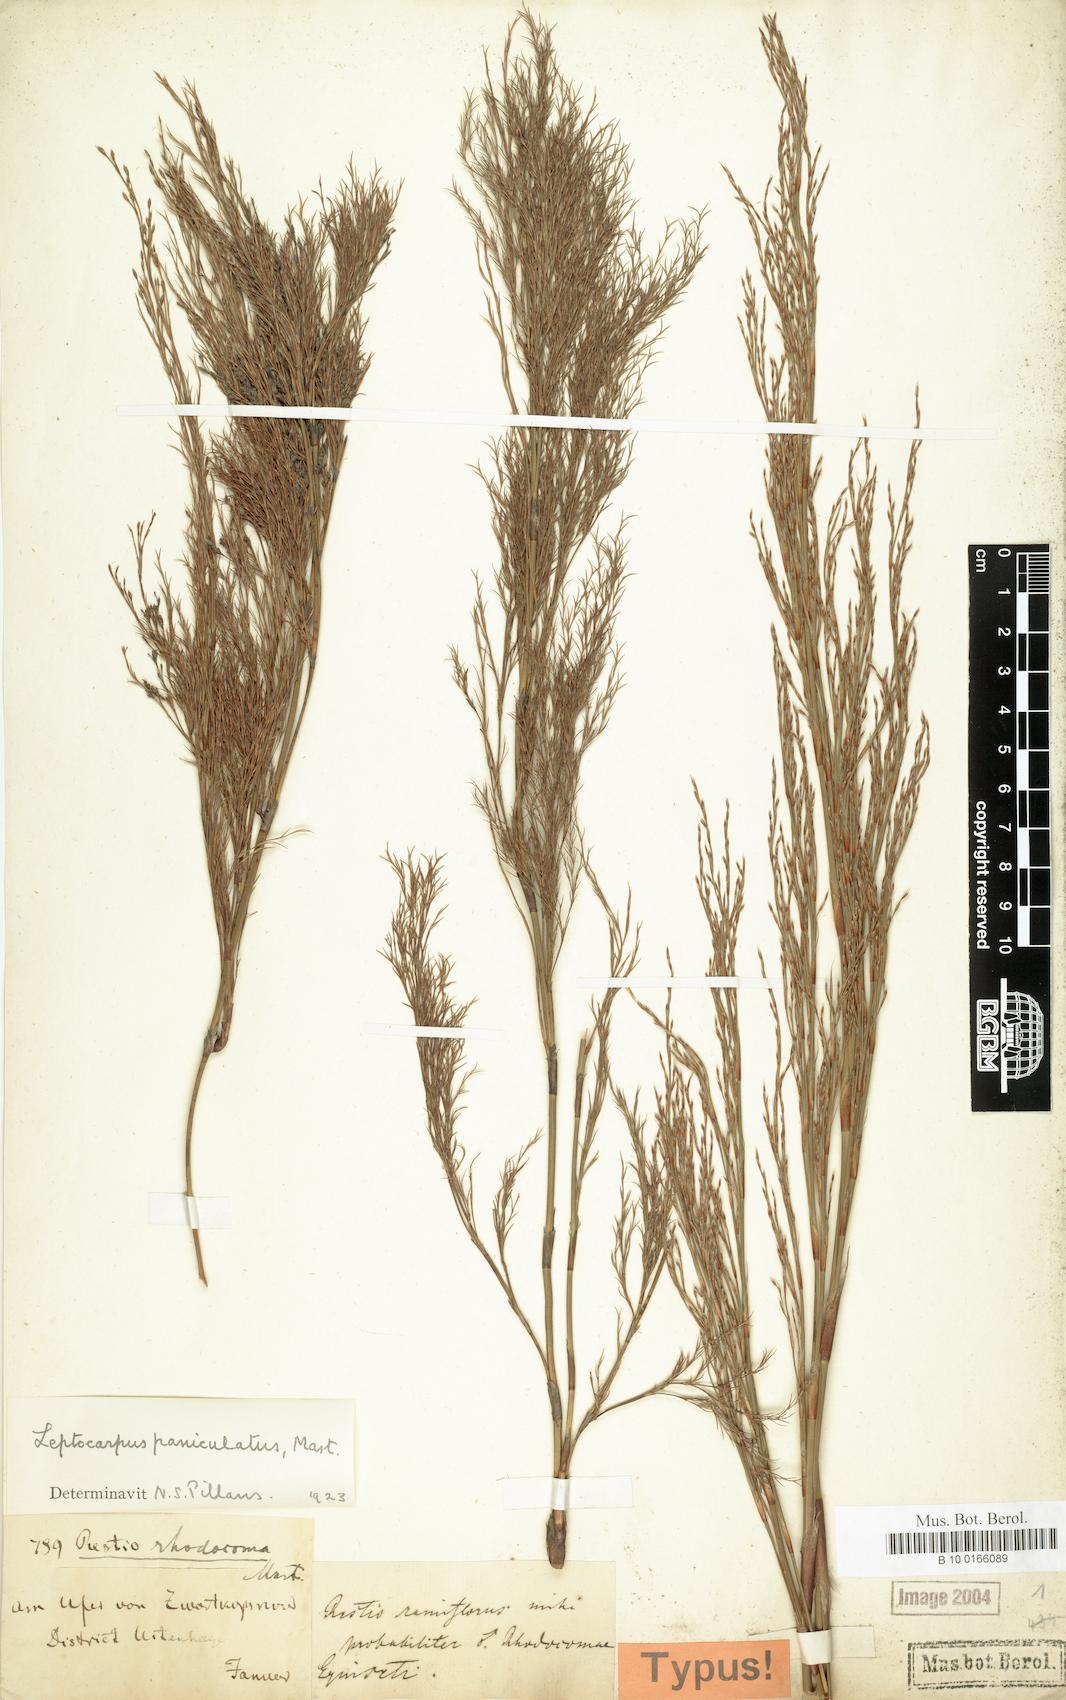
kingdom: Plantae
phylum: Tracheophyta
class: Liliopsida
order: Poales
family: Restionaceae
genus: Restio
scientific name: Restio paniculatus
